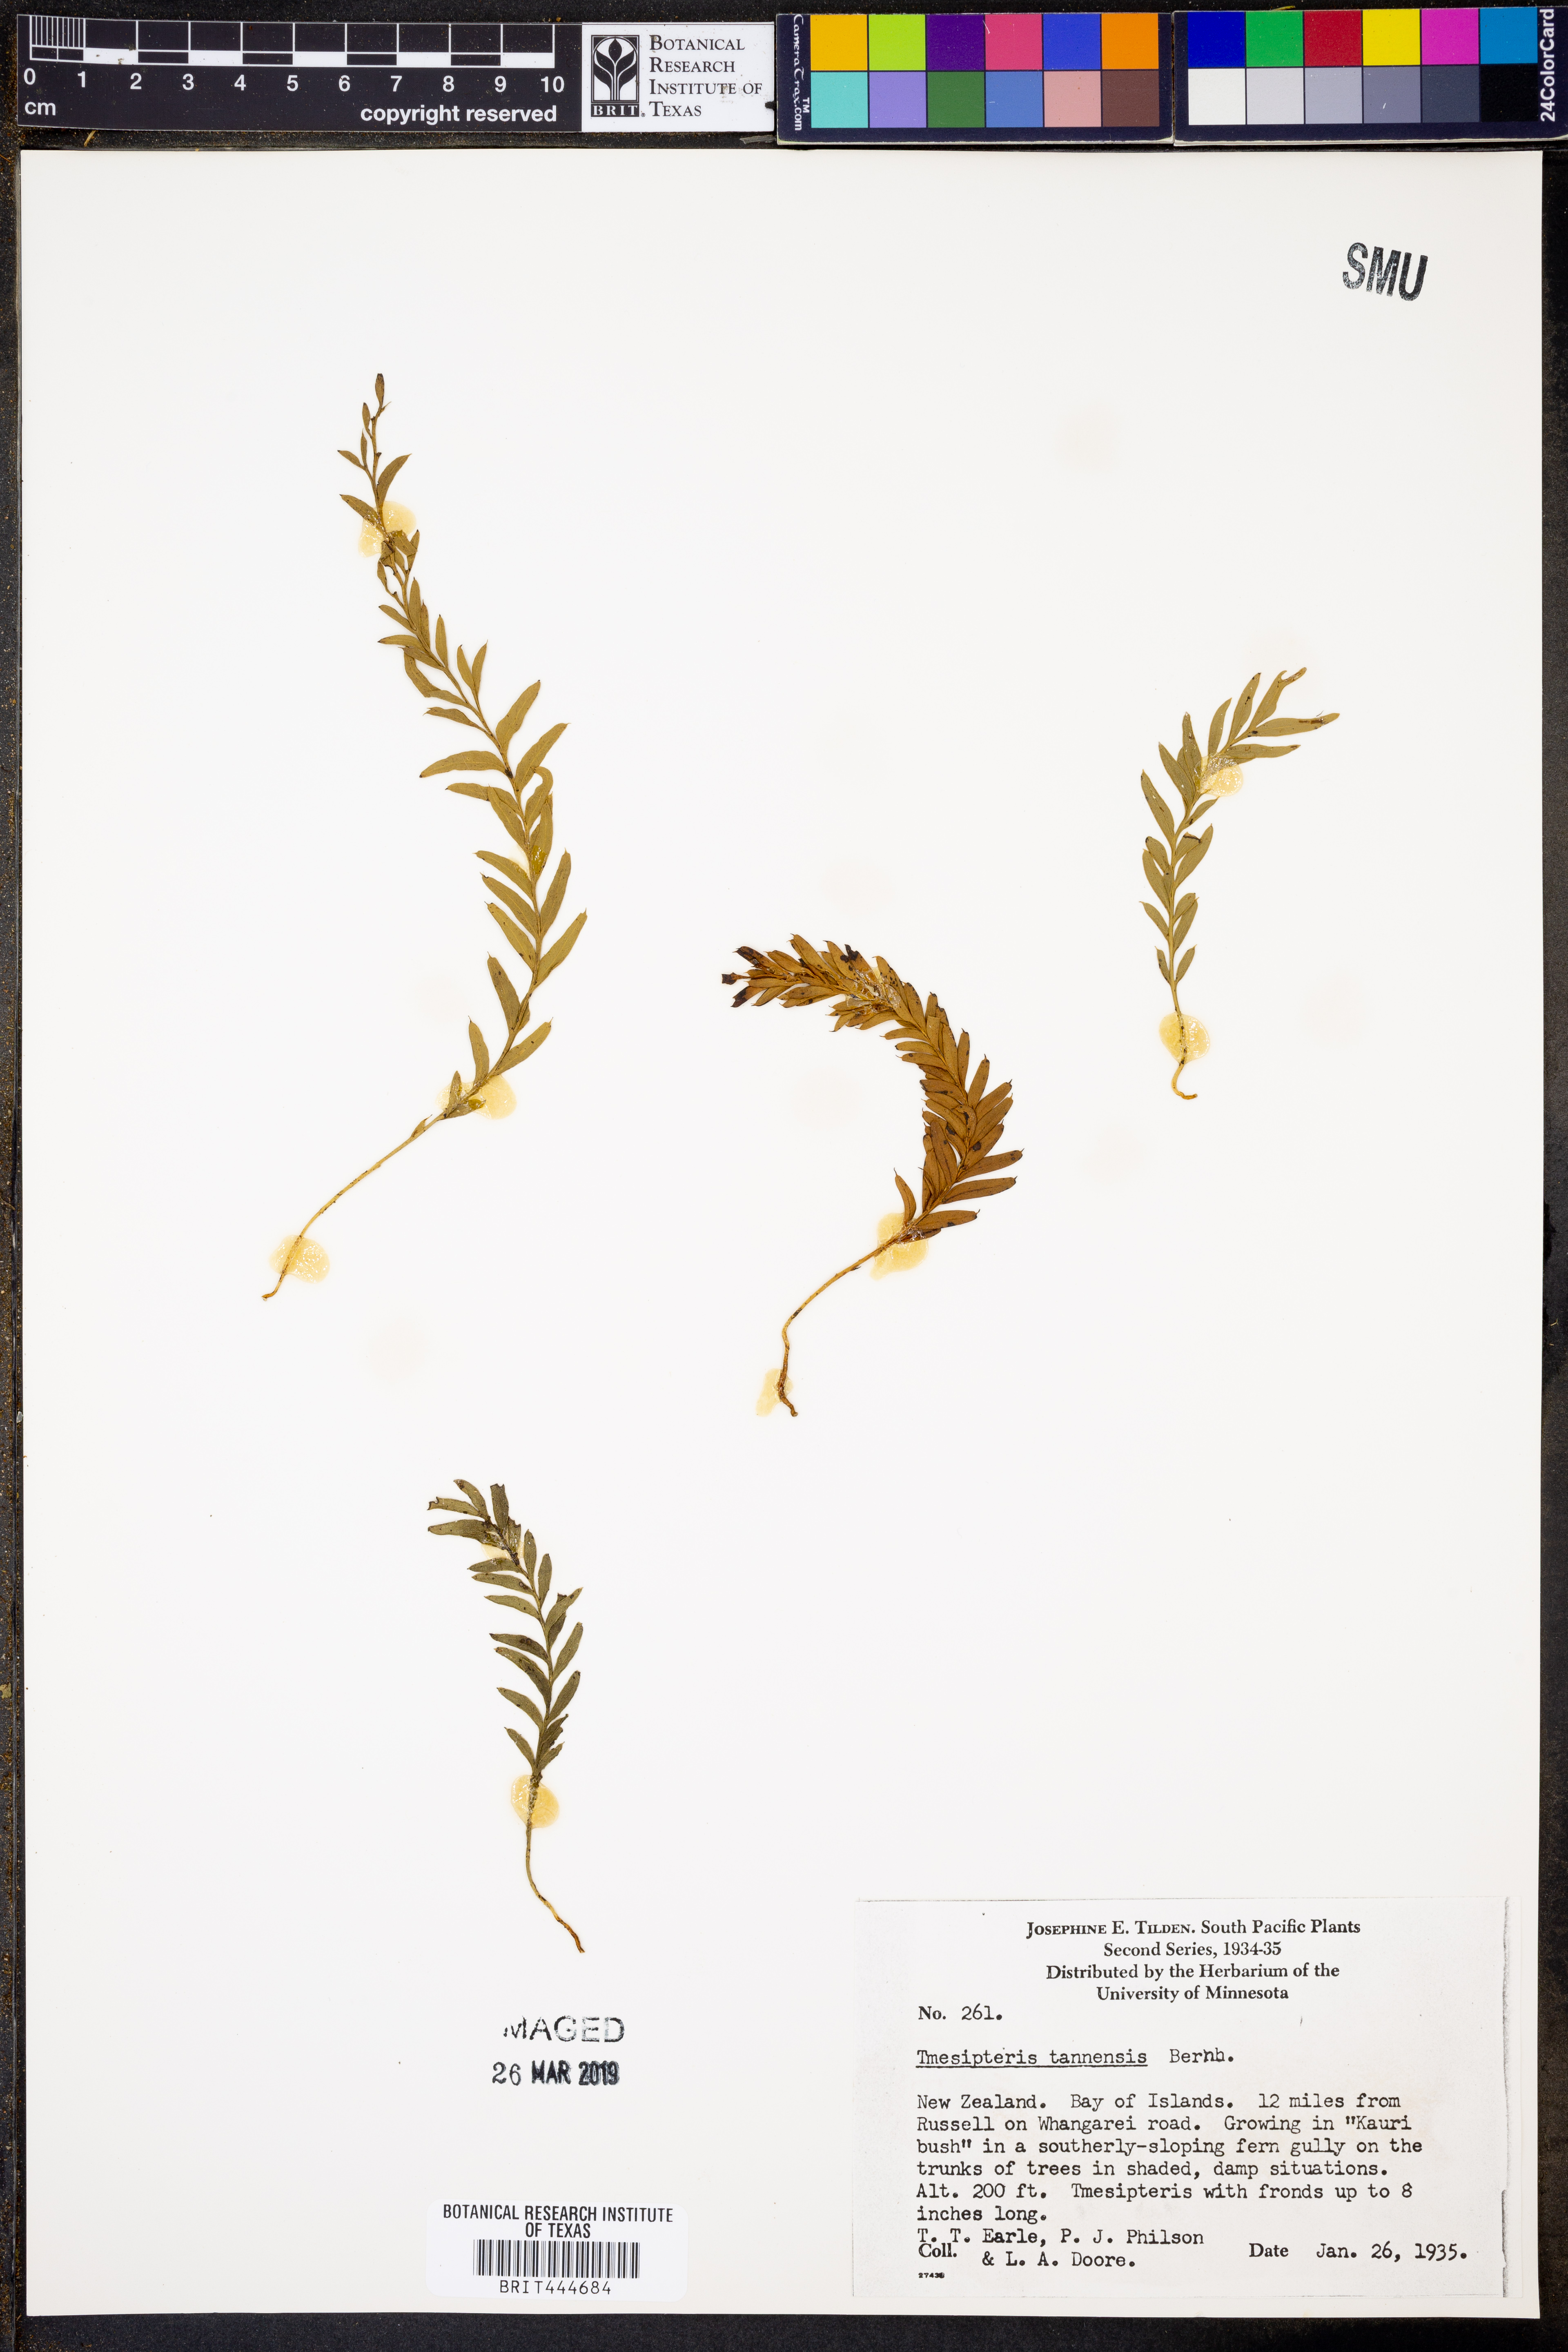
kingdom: Plantae
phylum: Tracheophyta
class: Polypodiopsida
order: Psilotales
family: Psilotaceae
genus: Tmesipteris
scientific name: Tmesipteris tannensis
